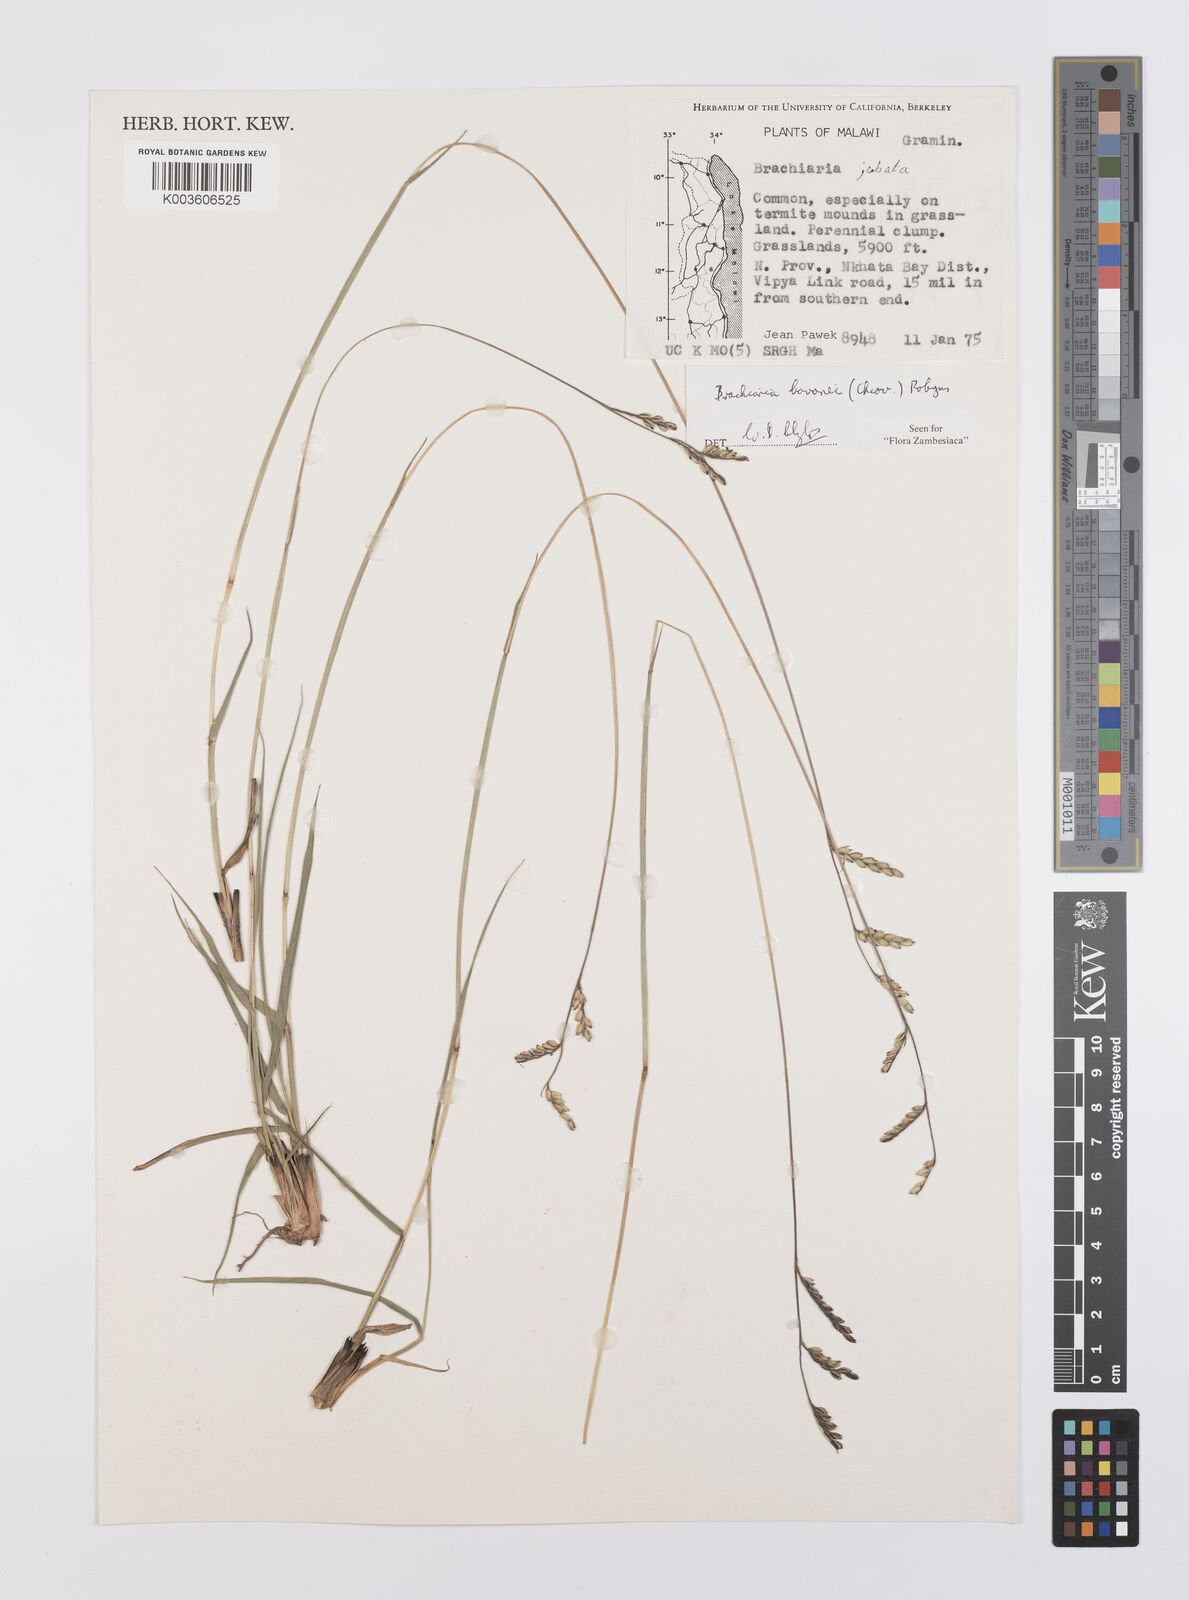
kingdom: Plantae
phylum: Tracheophyta
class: Liliopsida
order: Poales
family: Poaceae
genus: Urochloa
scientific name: Urochloa bovonei
